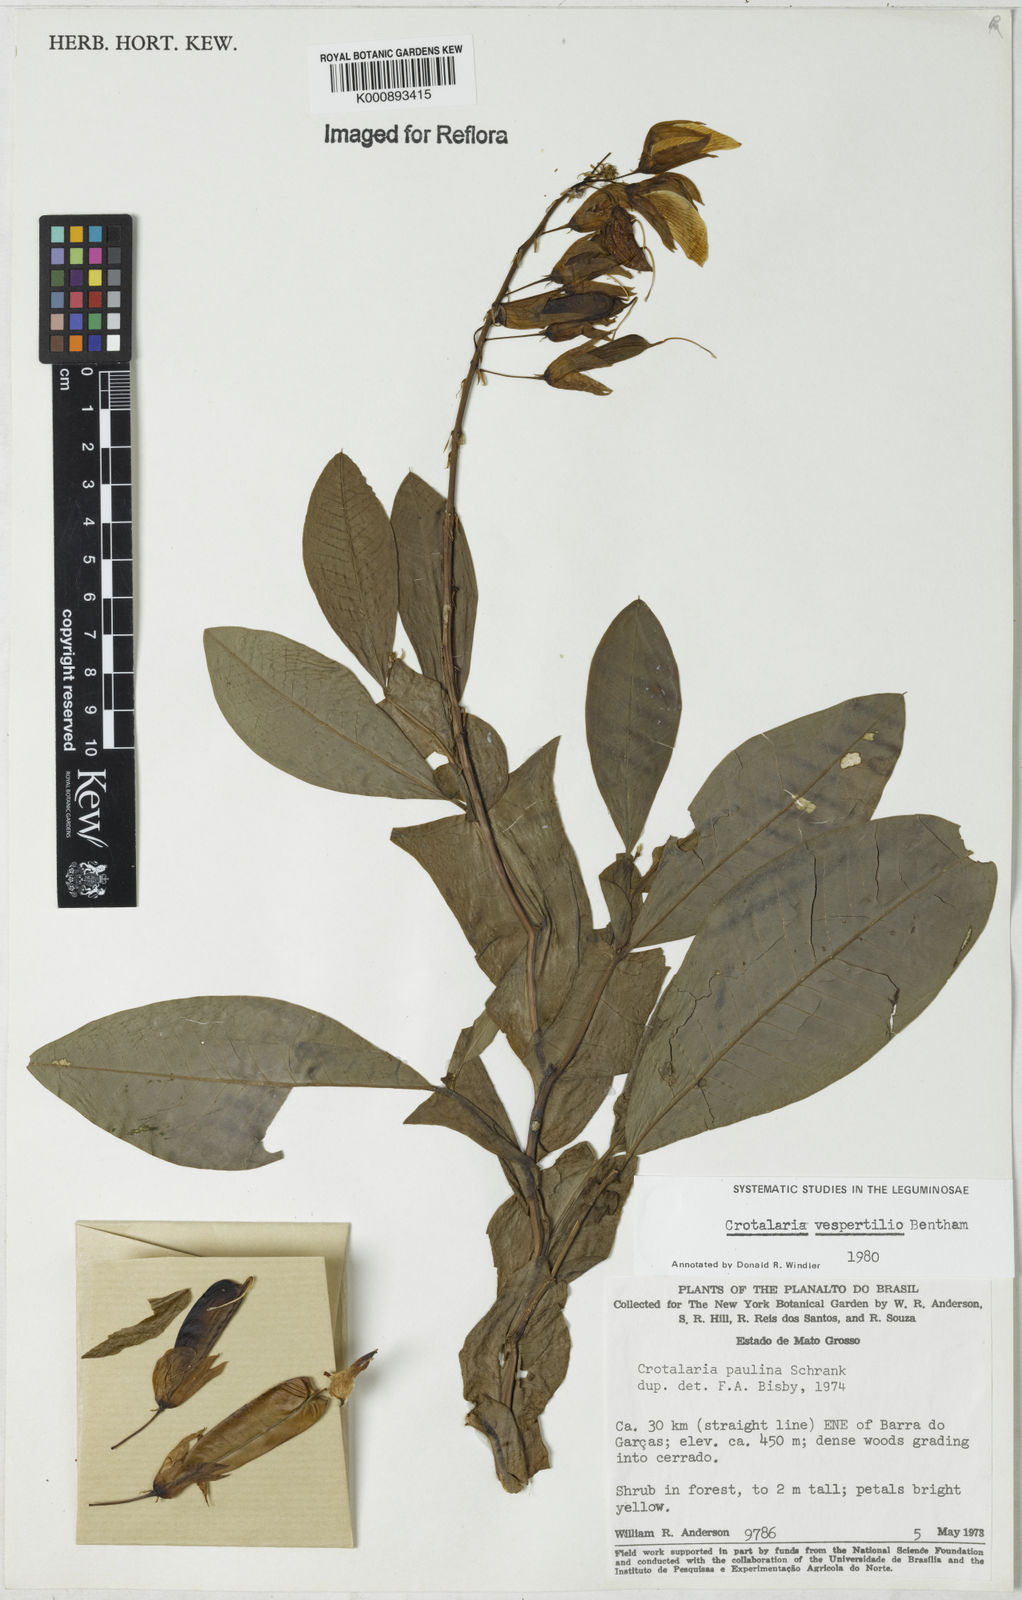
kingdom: Plantae
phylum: Tracheophyta
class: Magnoliopsida
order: Fabales
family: Fabaceae
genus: Crotalaria
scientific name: Crotalaria vespertilio
